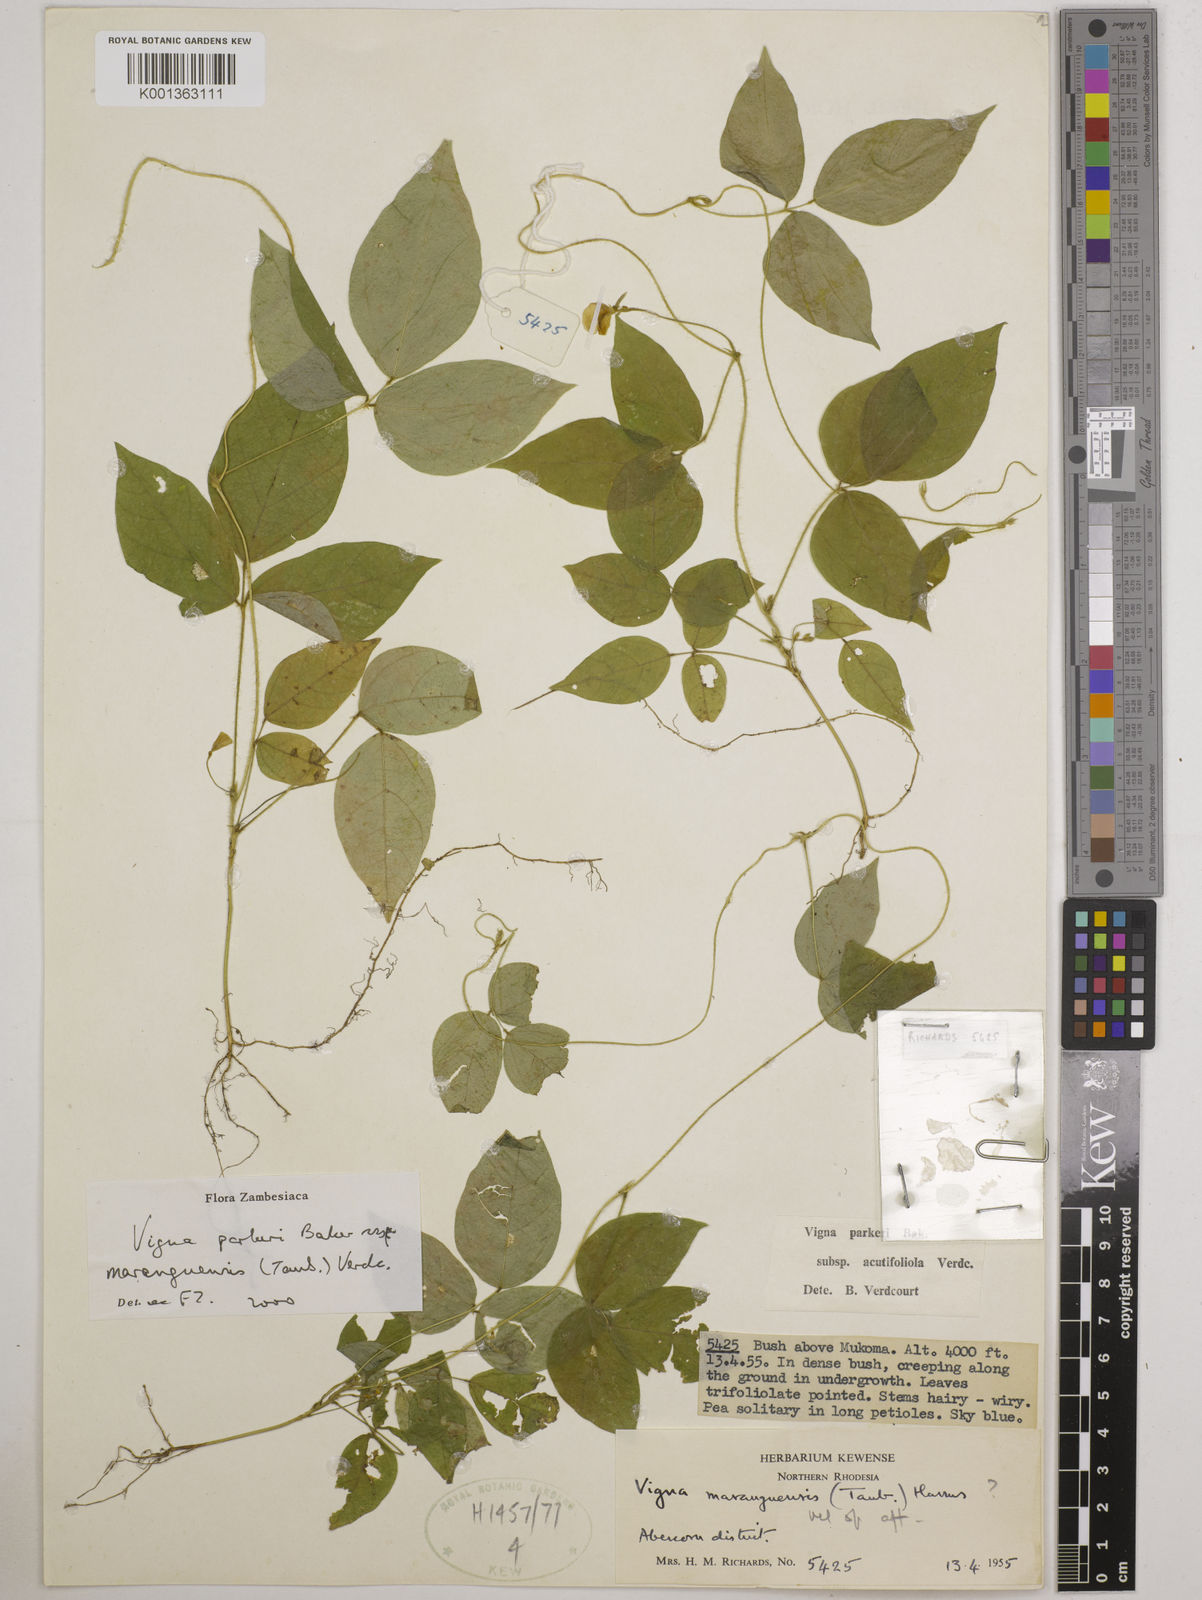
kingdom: Plantae
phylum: Tracheophyta
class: Magnoliopsida
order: Fabales
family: Fabaceae
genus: Vigna
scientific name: Vigna
